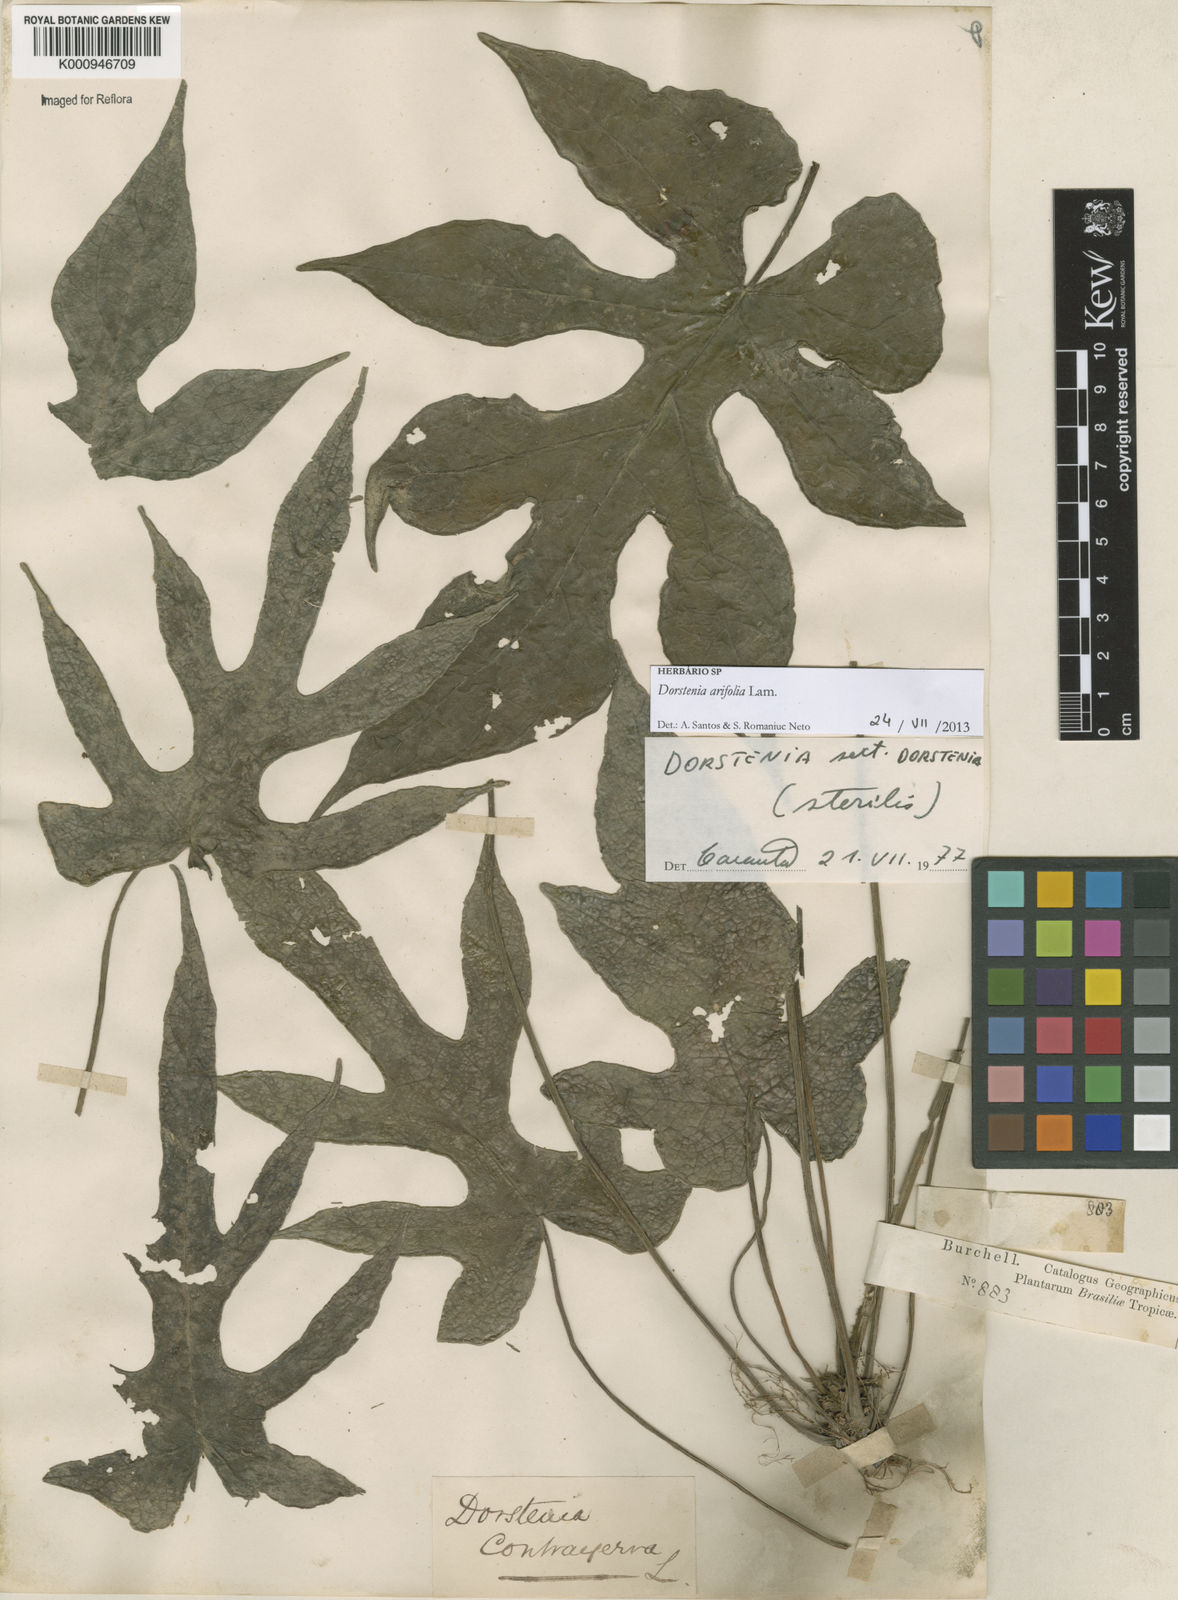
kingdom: Plantae
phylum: Tracheophyta
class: Magnoliopsida
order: Rosales
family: Moraceae
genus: Dorstenia
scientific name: Dorstenia arifolia
